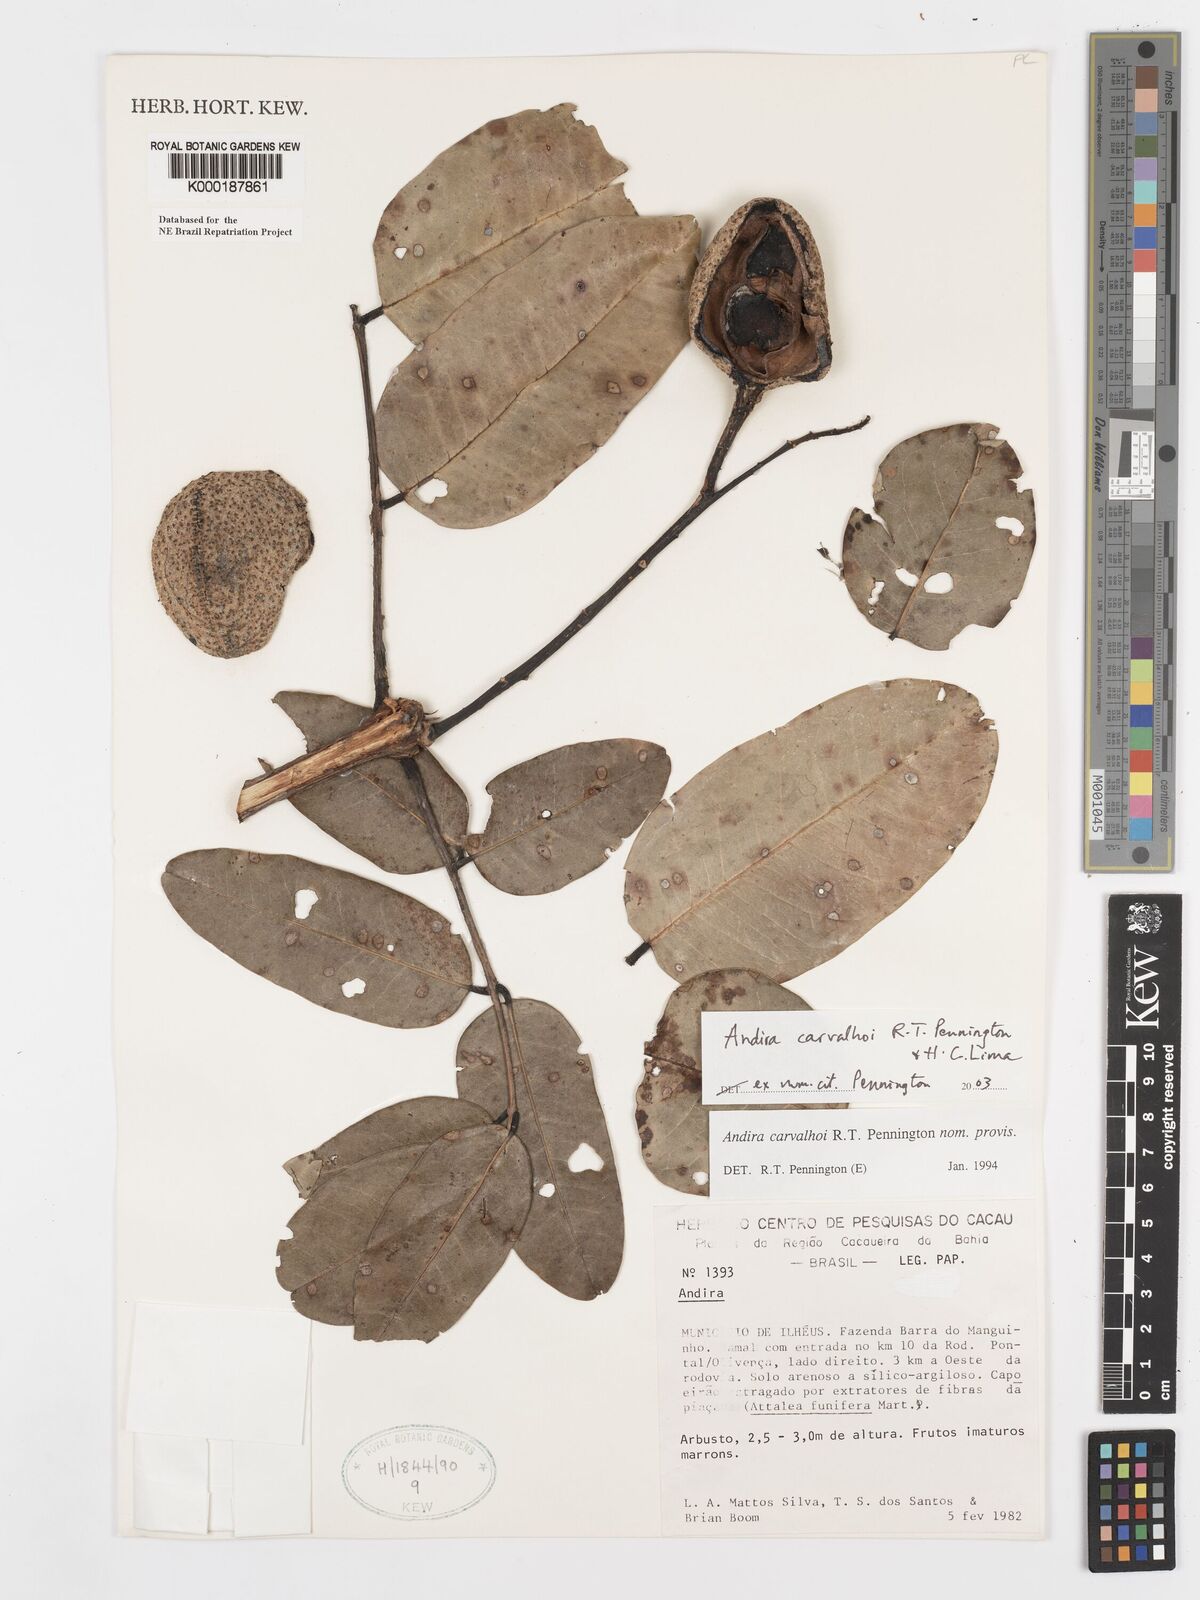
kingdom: Plantae
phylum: Tracheophyta
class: Magnoliopsida
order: Fabales
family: Fabaceae
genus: Andira
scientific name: Andira carvalhoi
